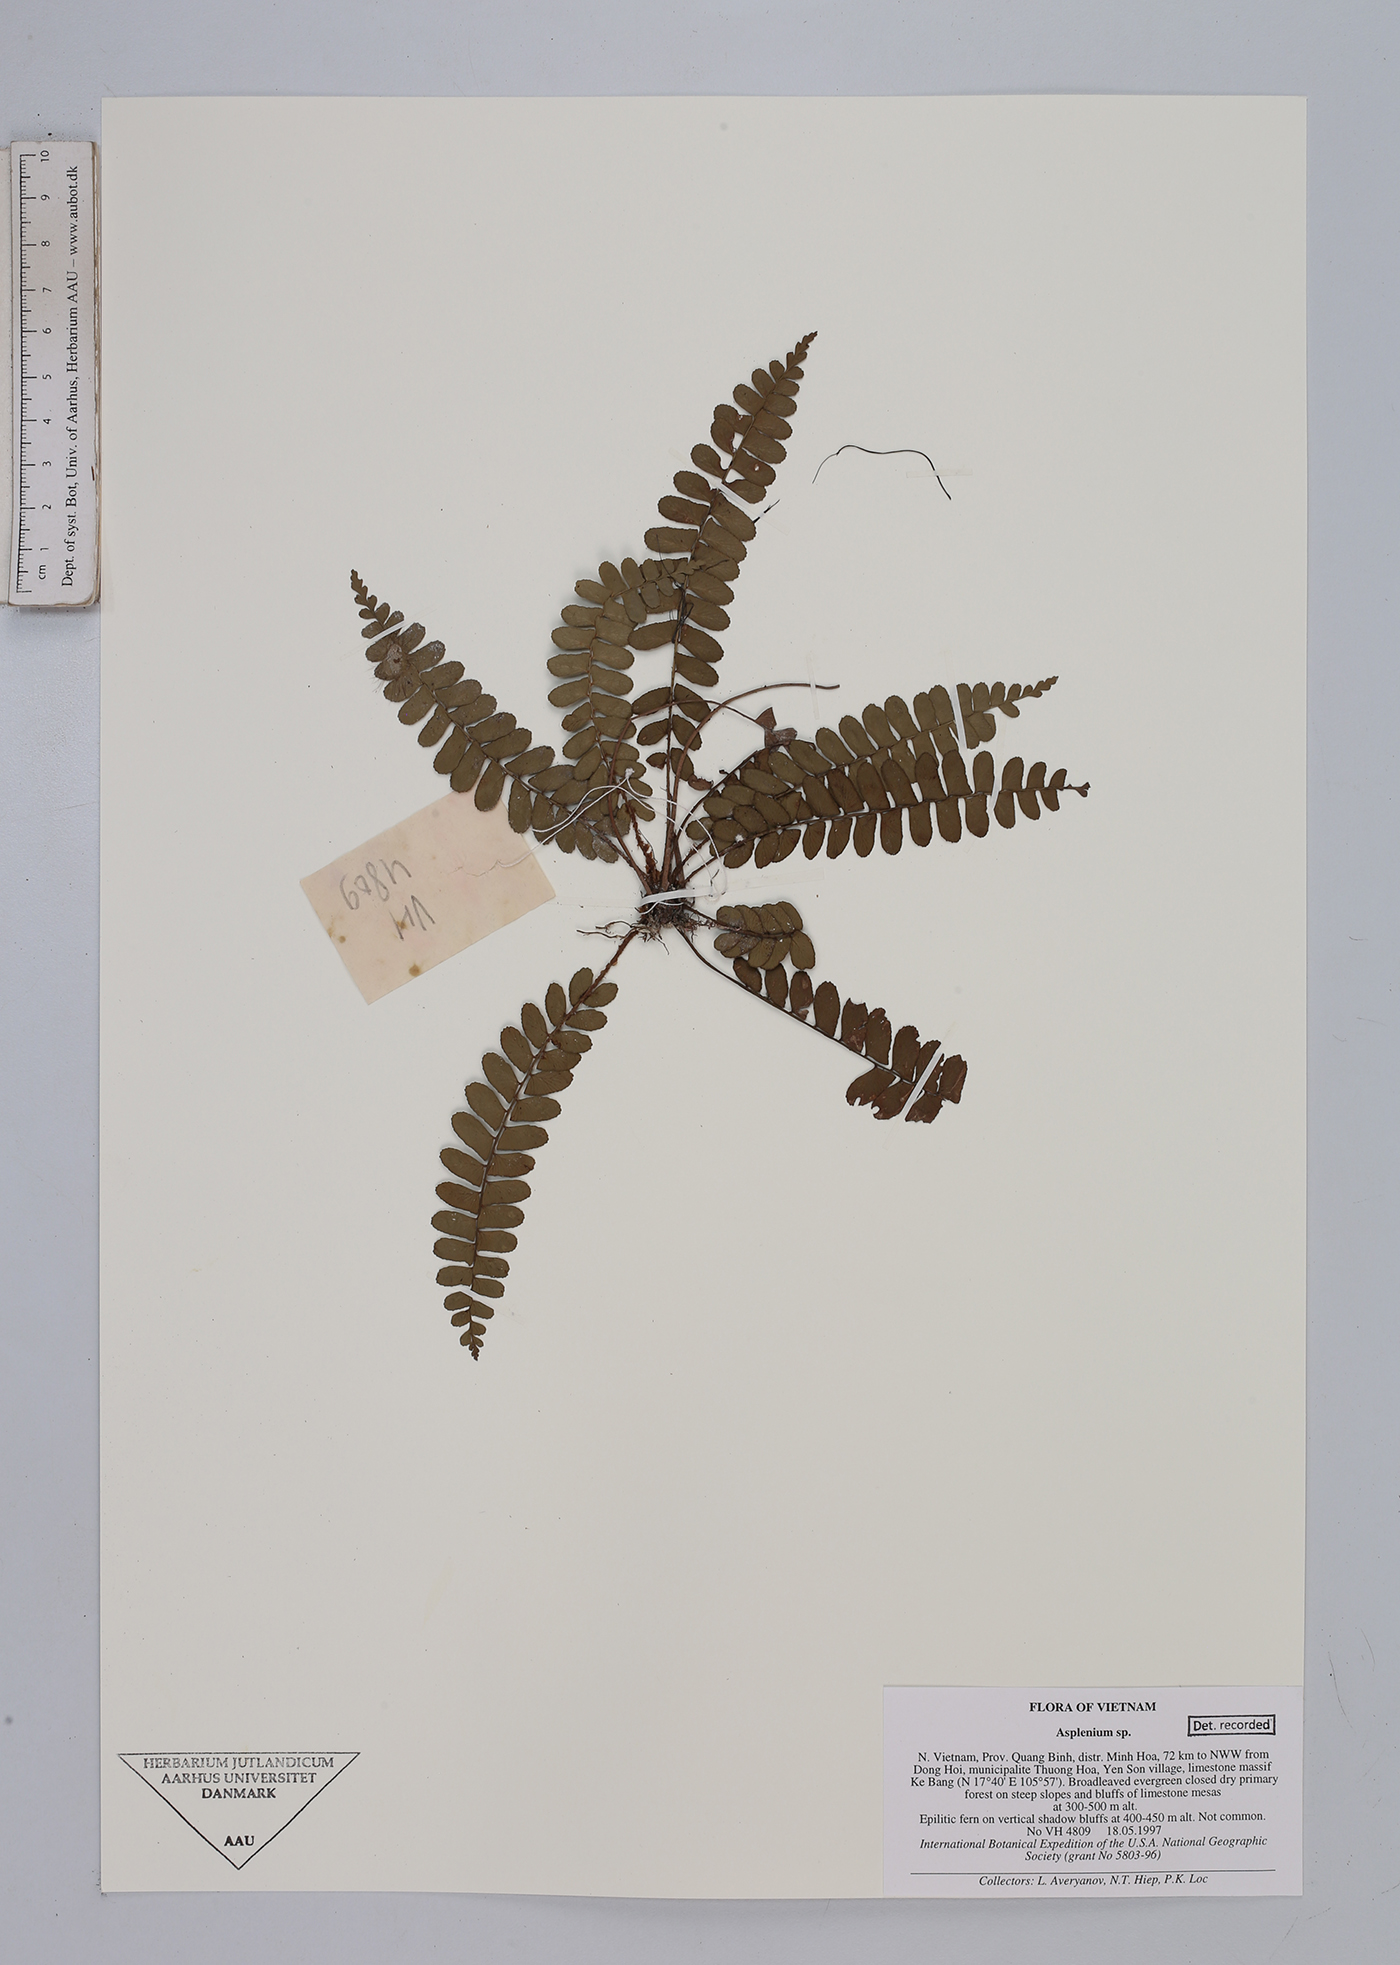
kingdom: Plantae
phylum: Tracheophyta
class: Polypodiopsida
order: Polypodiales
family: Aspleniaceae
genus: Asplenium
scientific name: Asplenium
